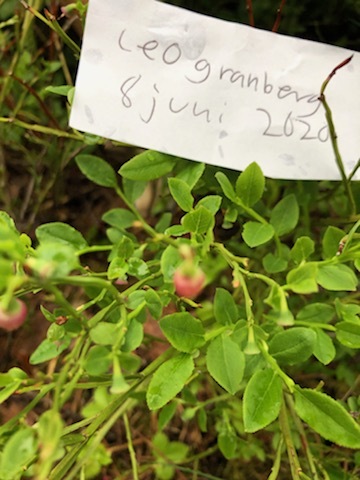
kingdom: Plantae
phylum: Tracheophyta
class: Magnoliopsida
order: Ericales
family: Ericaceae
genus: Vaccinium
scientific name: Vaccinium myrtillus
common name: Bilberry
